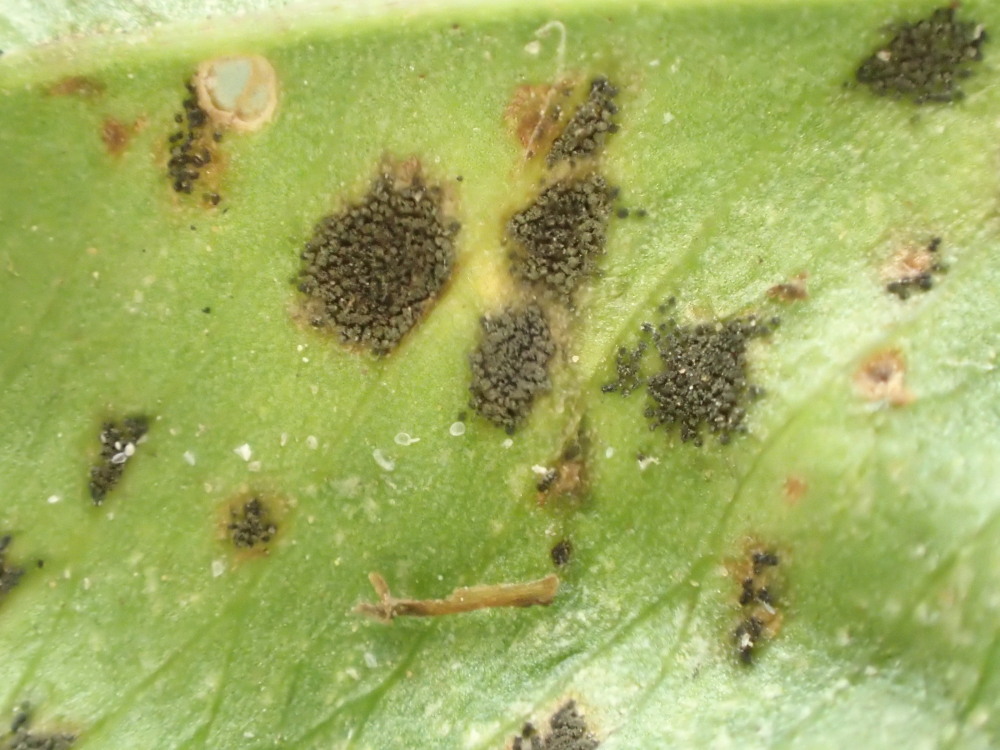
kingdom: Fungi
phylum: Ascomycota
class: Dothideomycetes
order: Mycosphaerellales
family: Mycosphaerellaceae
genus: Polythrincium
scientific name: Polythrincium trifolii
